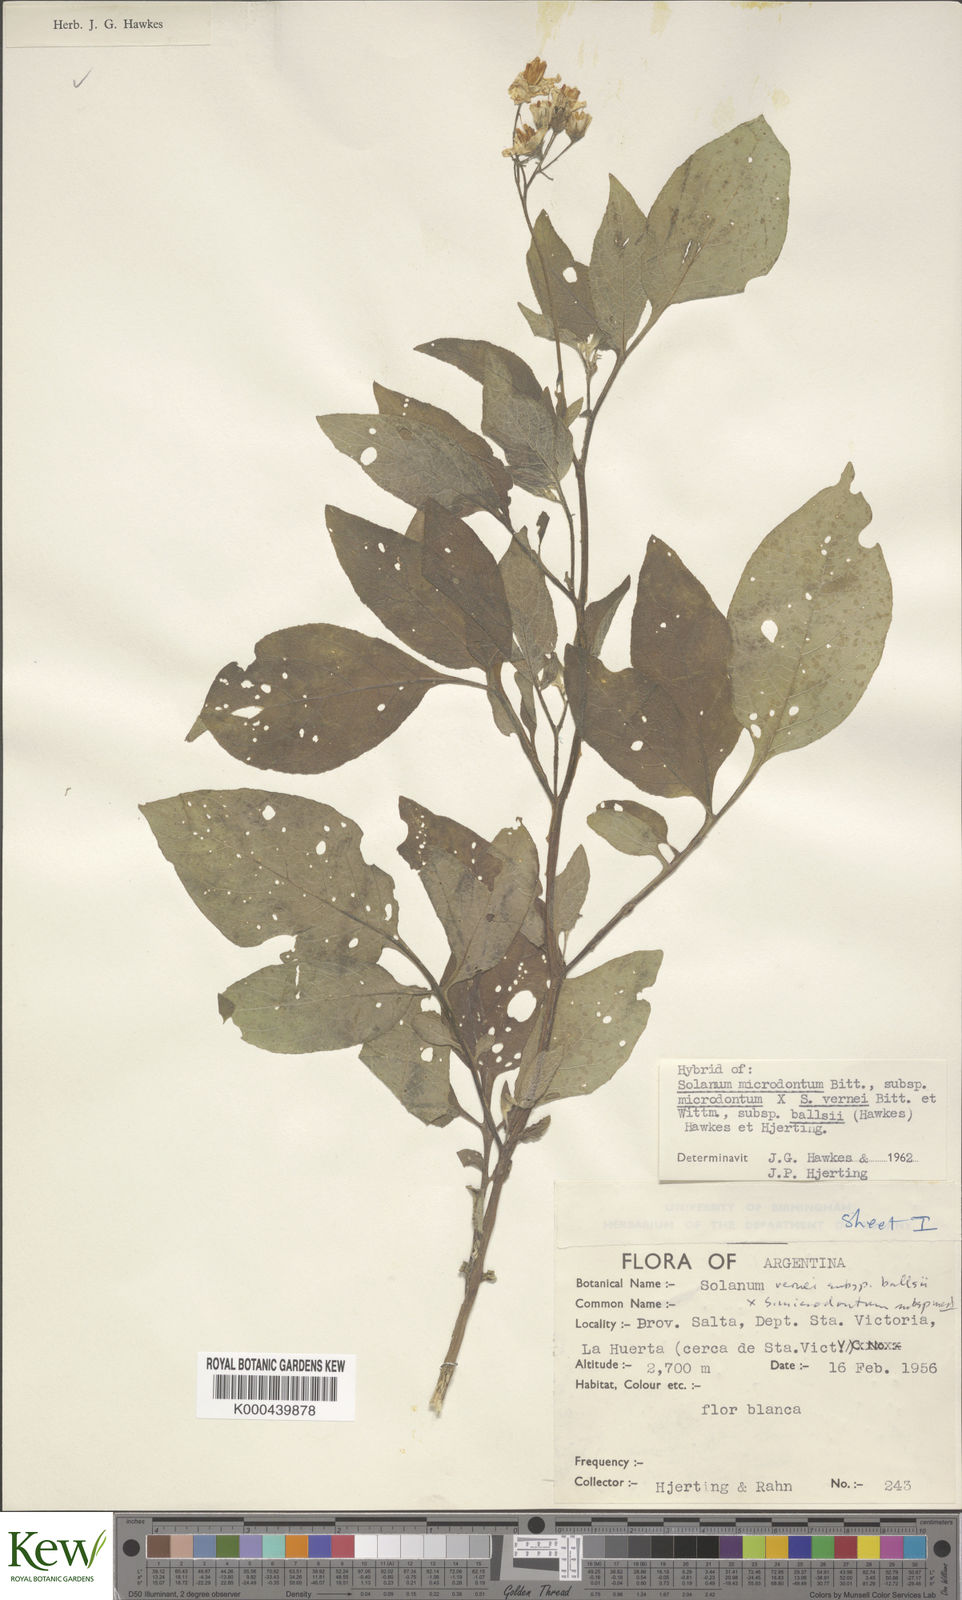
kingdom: Plantae
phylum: Tracheophyta
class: Magnoliopsida
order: Solanales
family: Solanaceae
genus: Solanum
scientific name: Solanum microdontum
